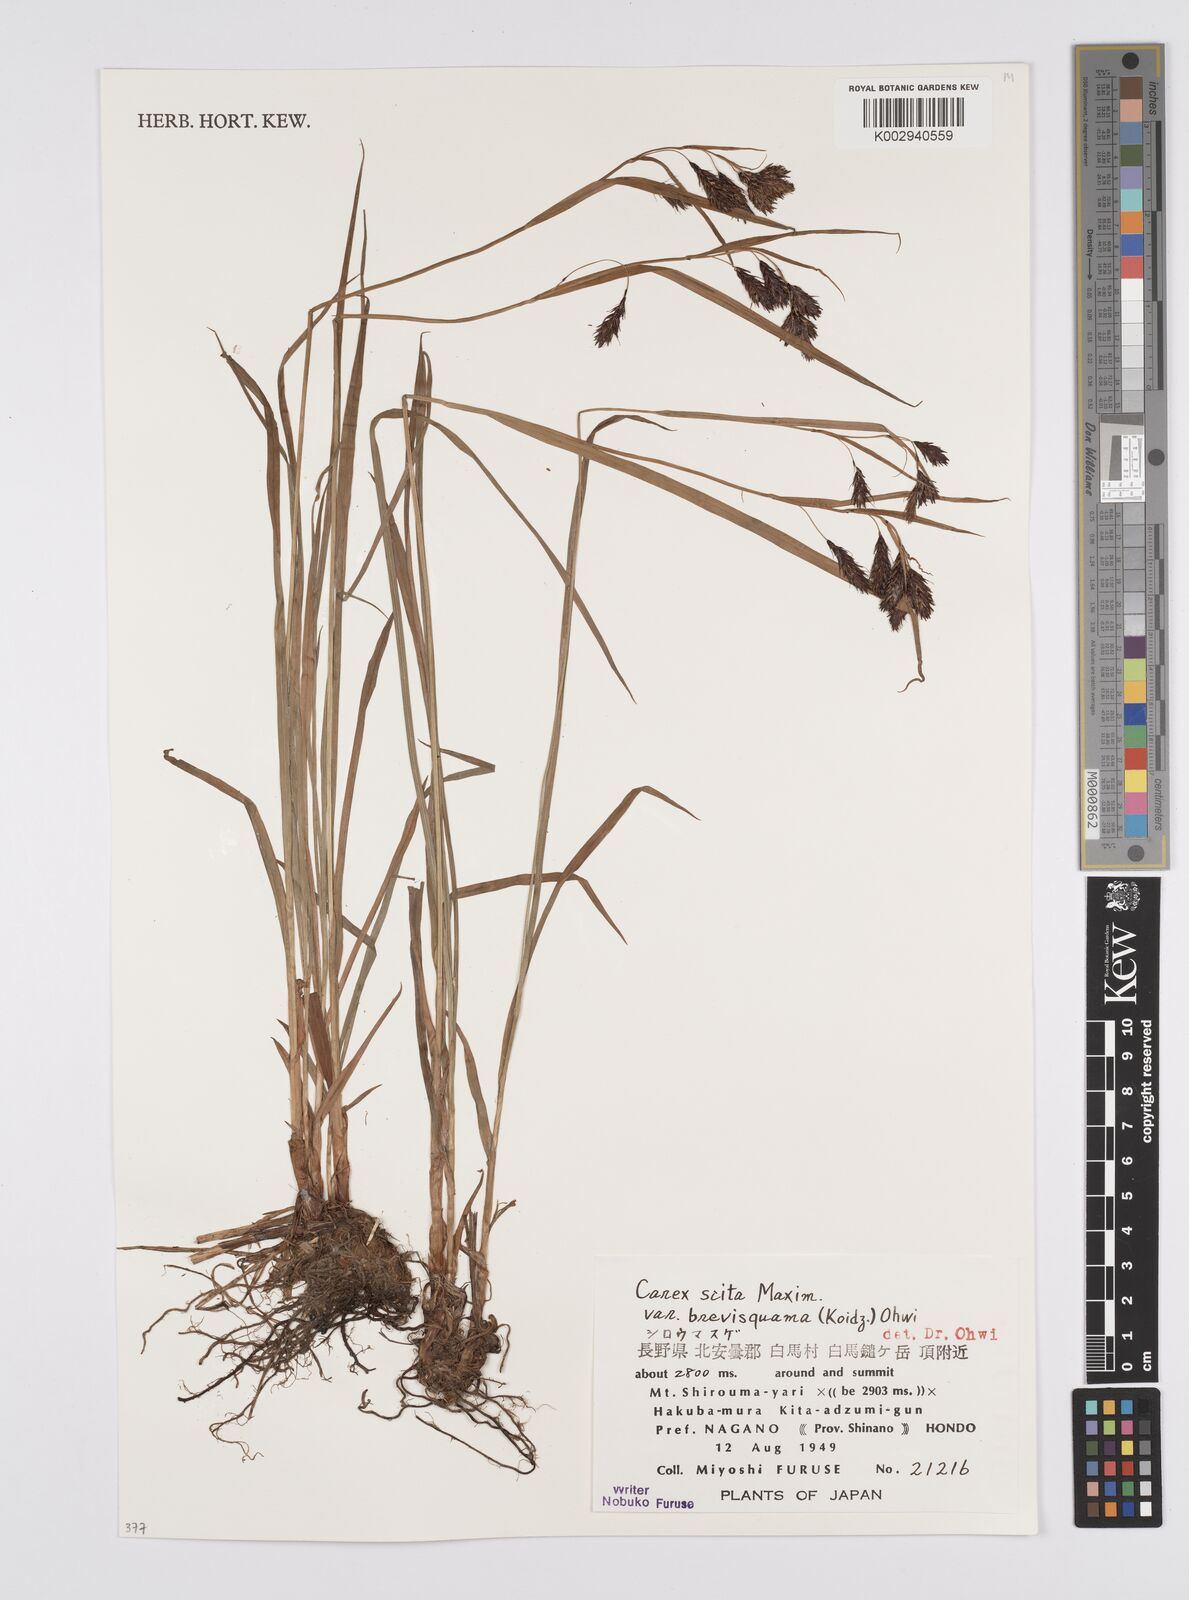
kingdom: Plantae
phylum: Tracheophyta
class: Liliopsida
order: Poales
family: Cyperaceae
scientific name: Cyperaceae
